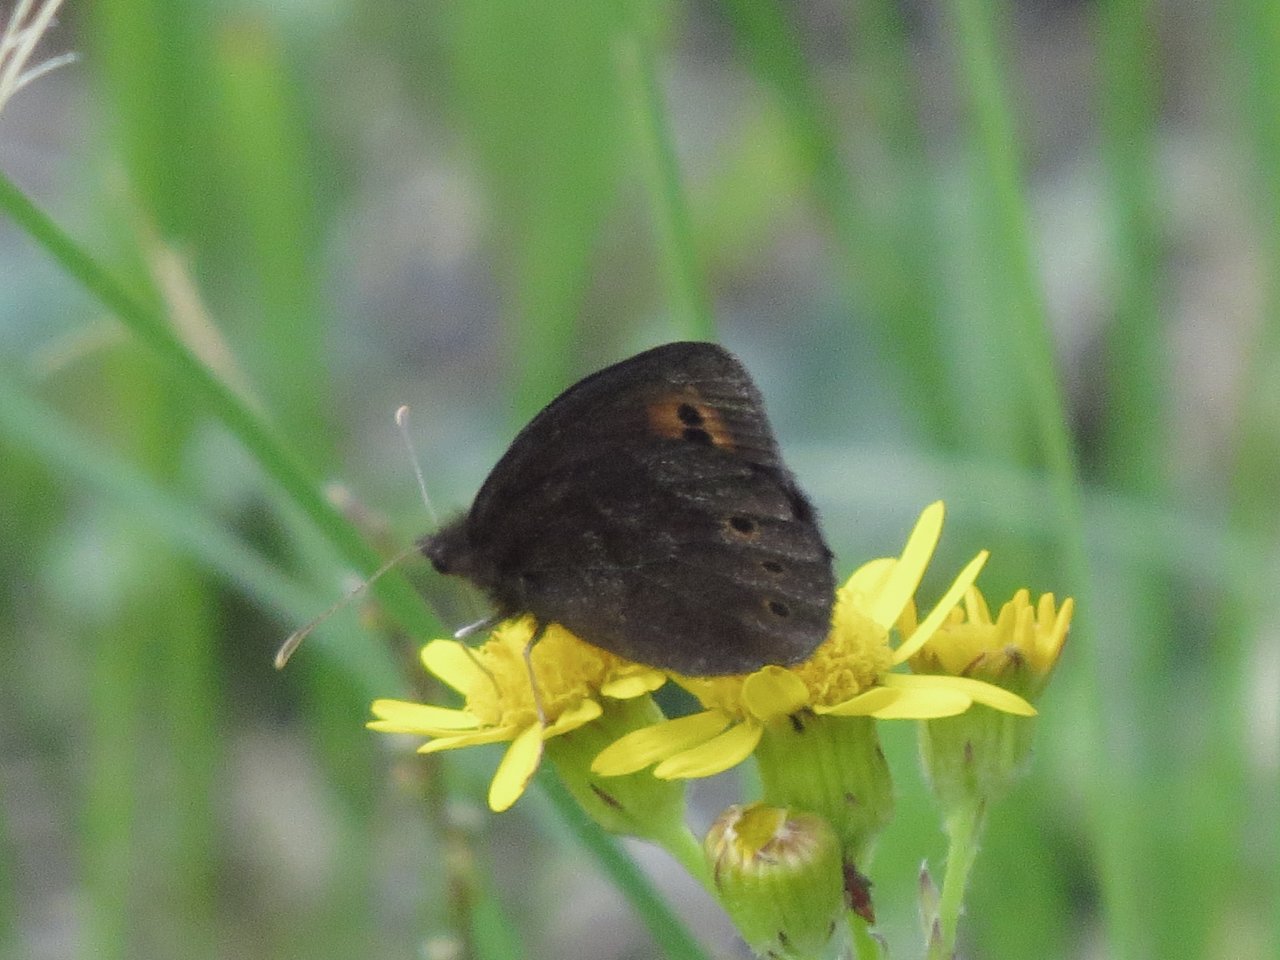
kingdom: Animalia
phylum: Arthropoda
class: Insecta
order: Lepidoptera
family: Nymphalidae
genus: Erebia
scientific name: Erebia epipsodea
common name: Common Alpine
